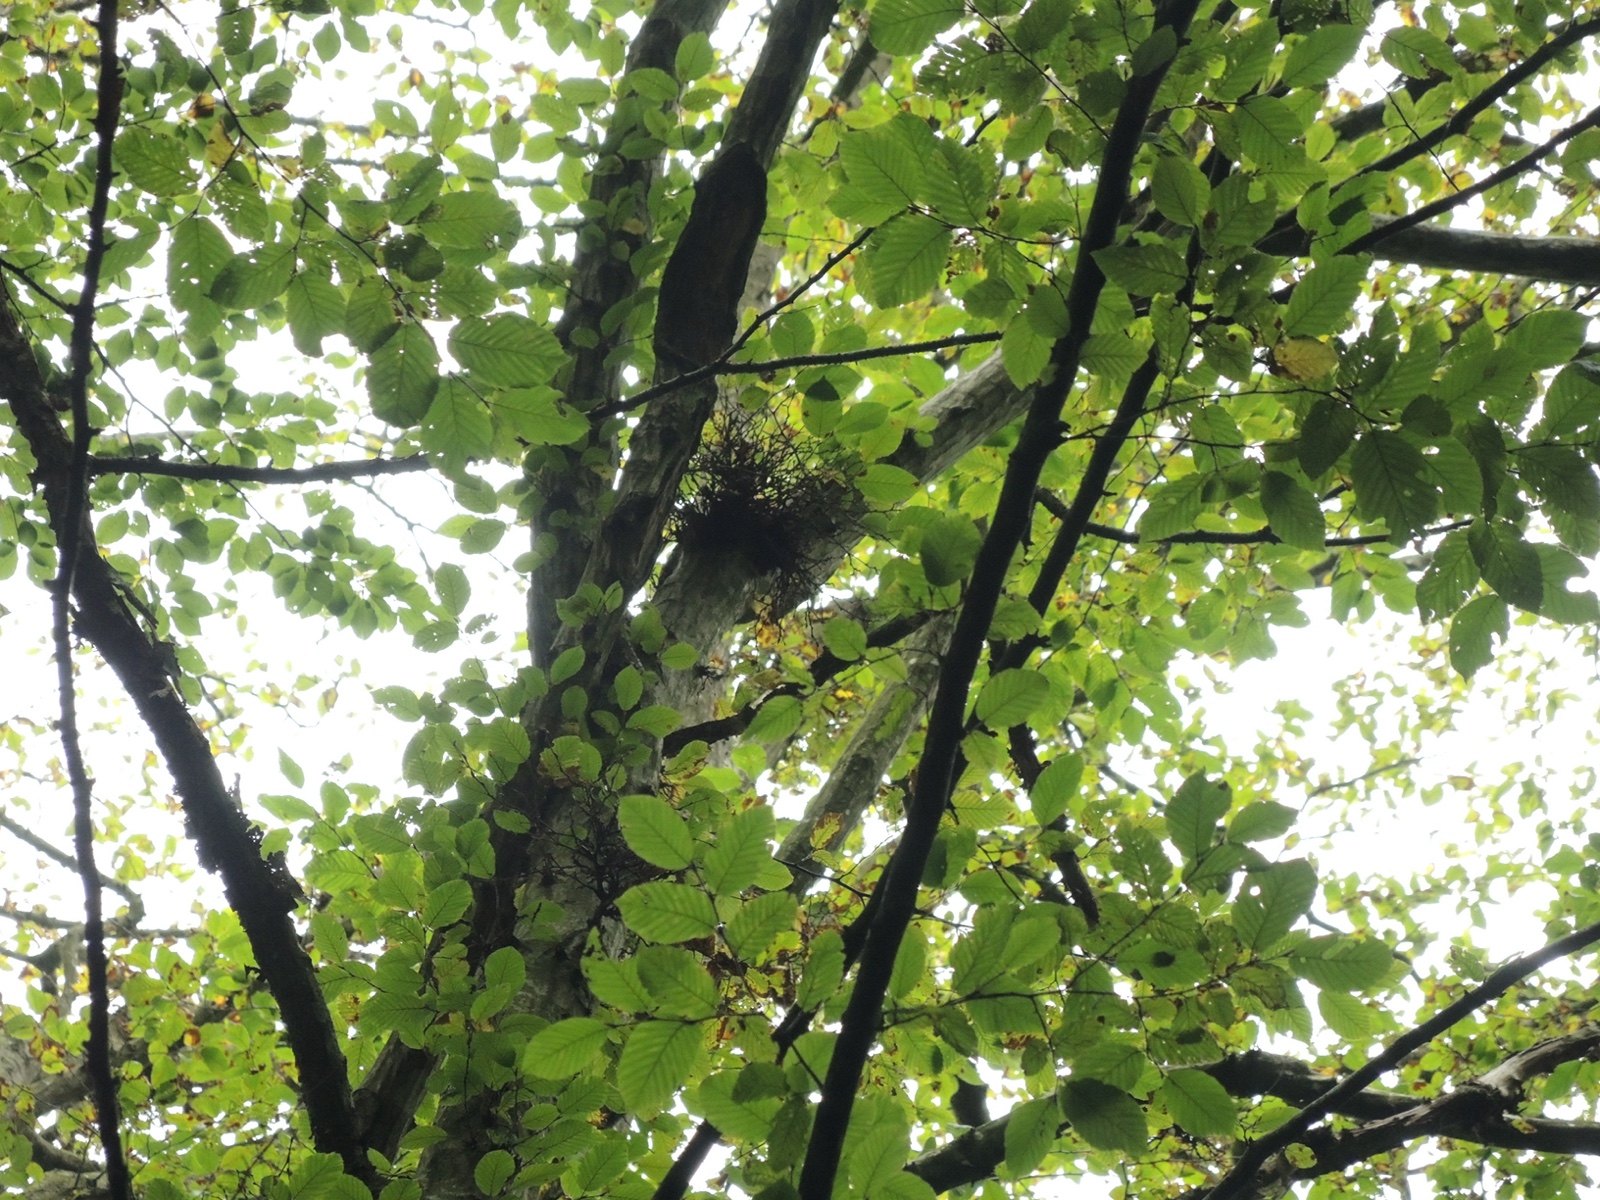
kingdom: Fungi
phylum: Ascomycota
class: Taphrinomycetes
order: Taphrinales
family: Taphrinaceae
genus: Taphrina
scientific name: Taphrina carpini
